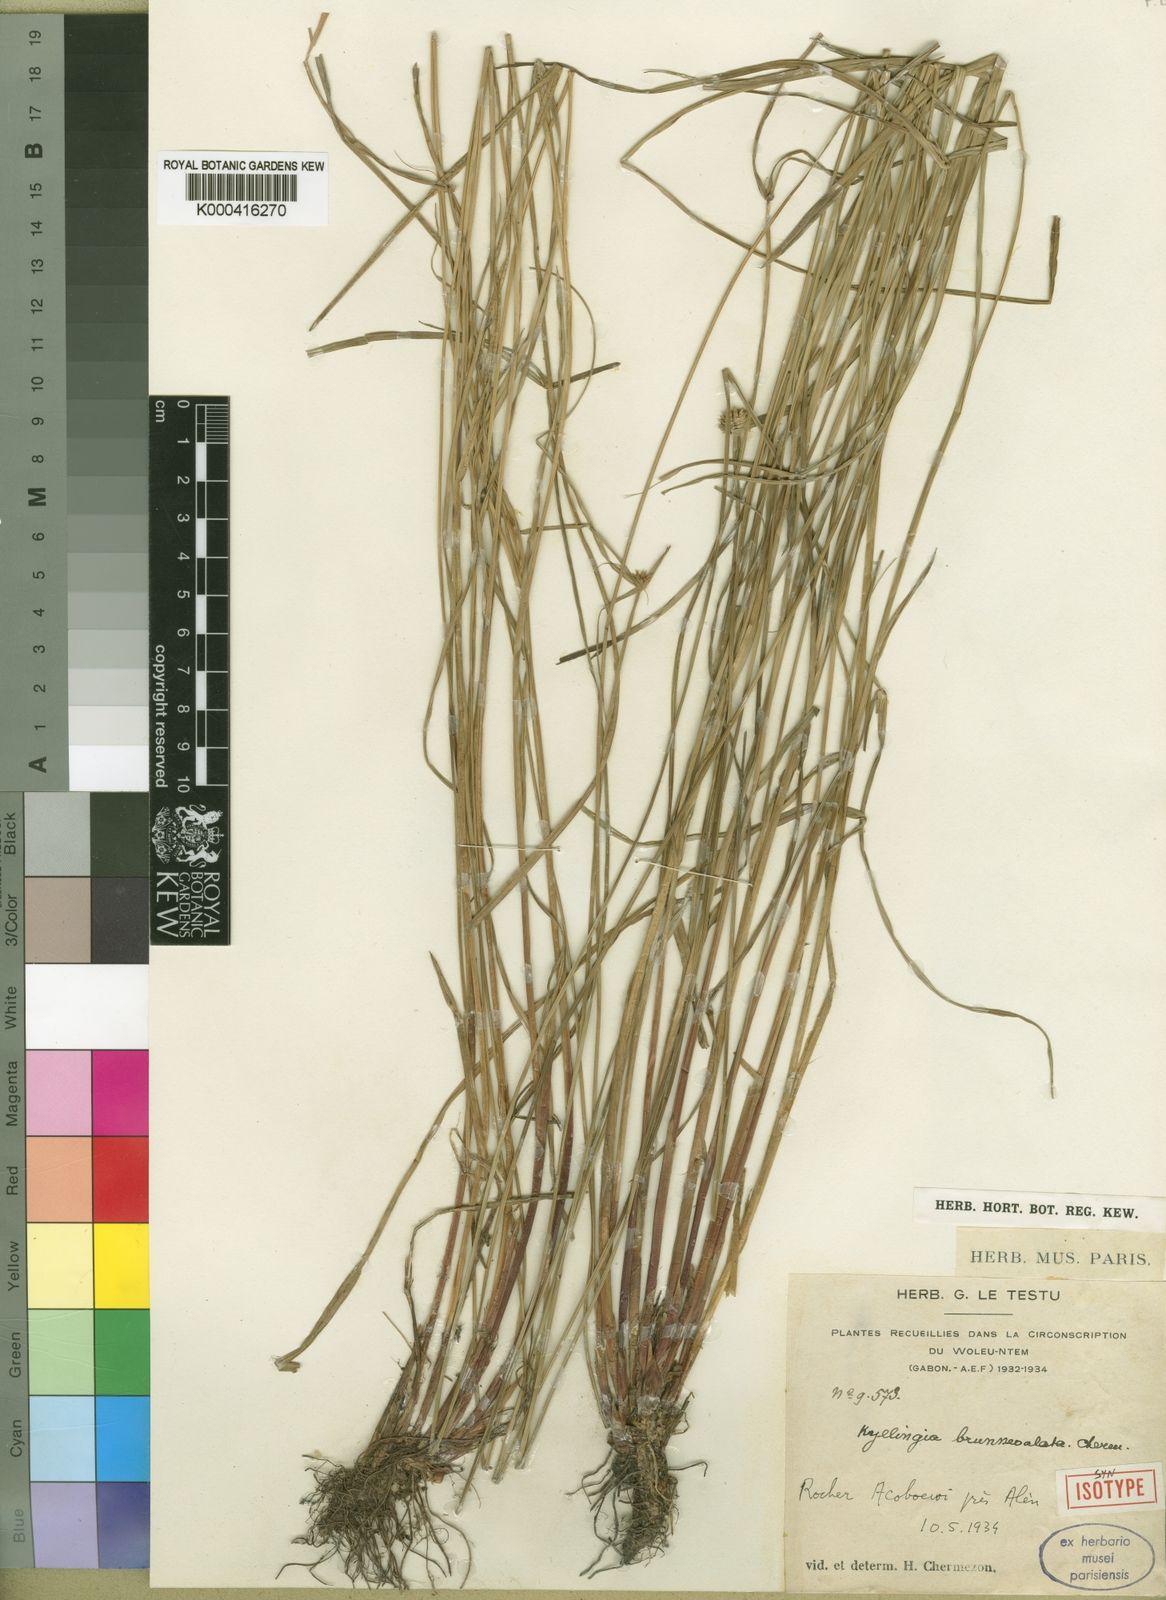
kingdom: Plantae
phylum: Tracheophyta
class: Liliopsida
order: Poales
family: Cyperaceae
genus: Cyperus
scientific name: Cyperus brunneoalatus
